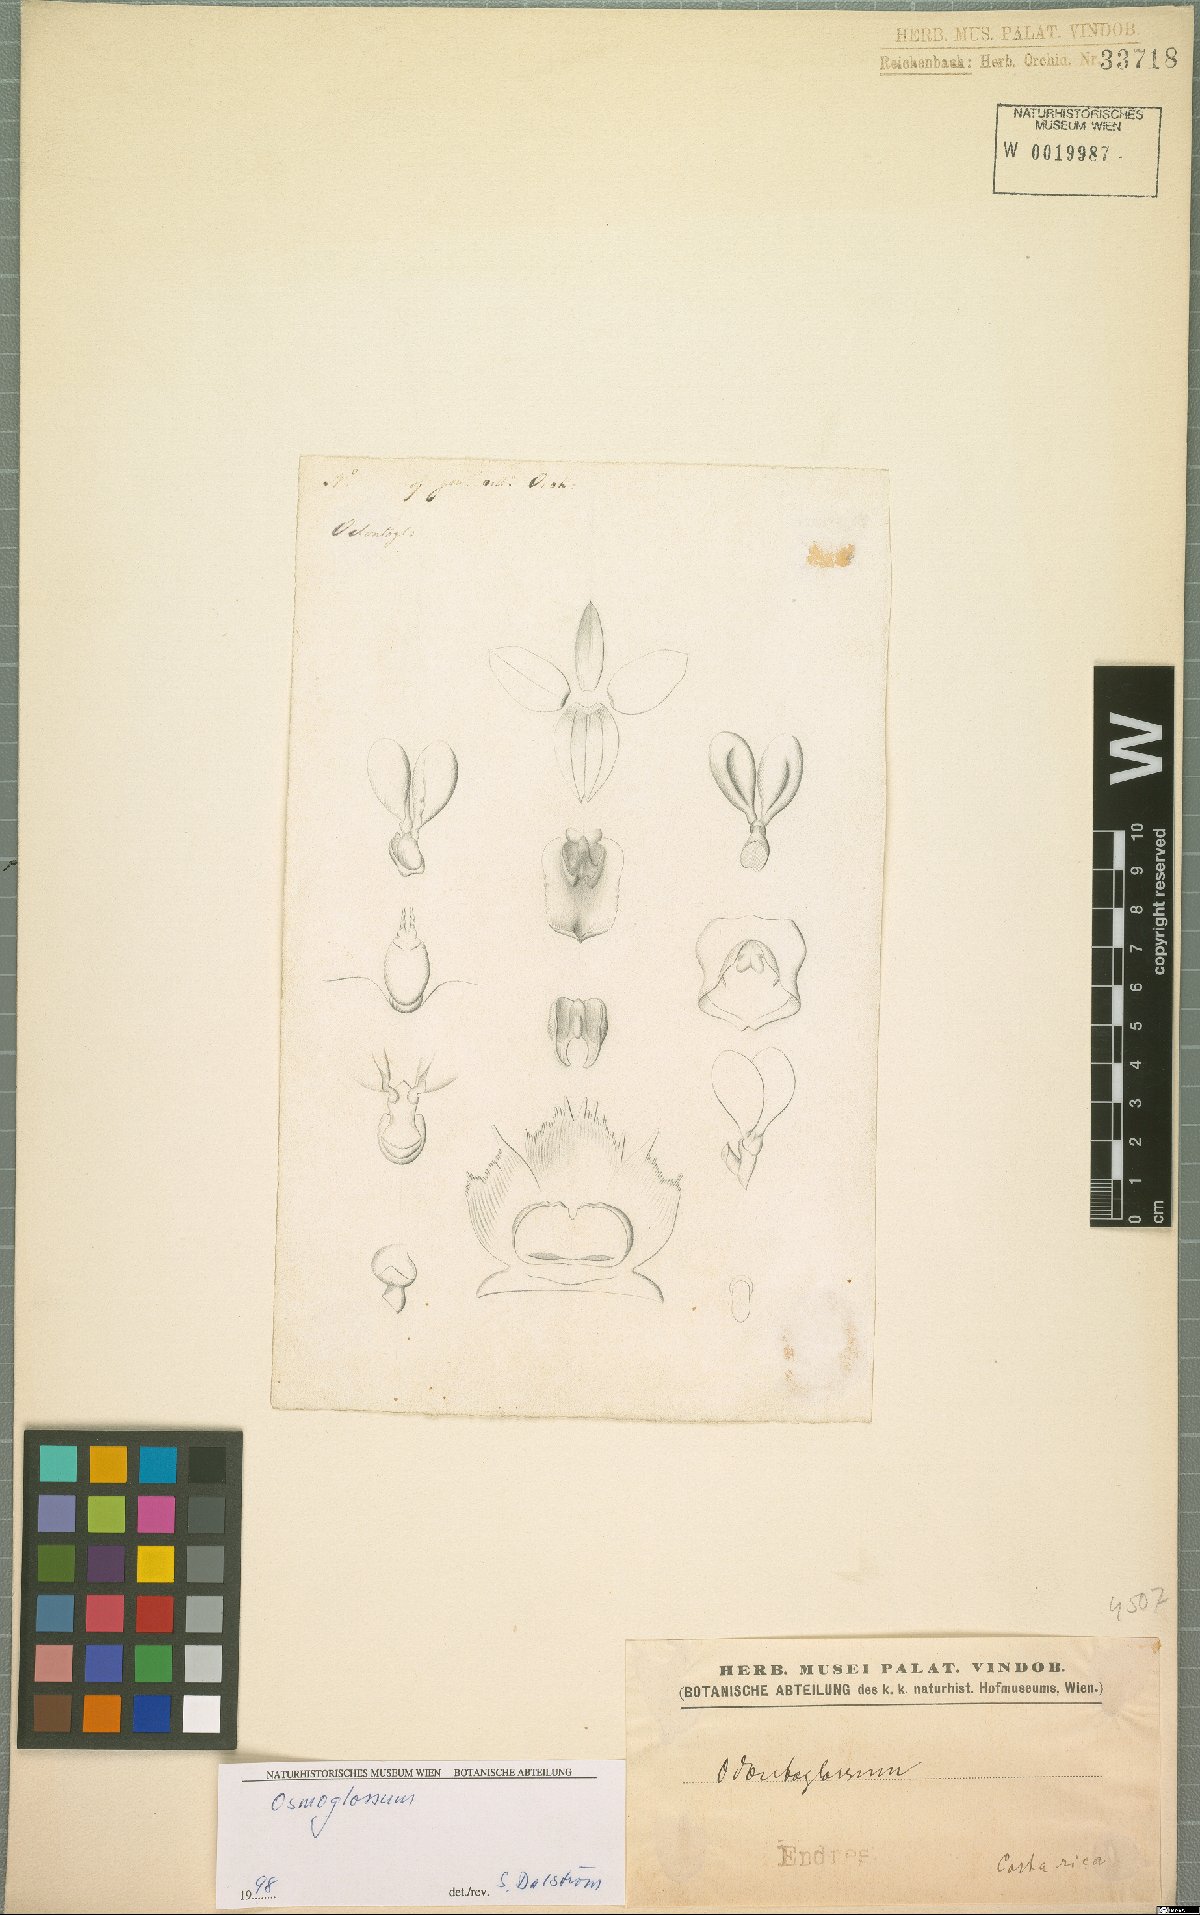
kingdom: Plantae
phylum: Tracheophyta
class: Liliopsida
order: Asparagales
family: Orchidaceae
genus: Cuitlauzina
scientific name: Cuitlauzina
